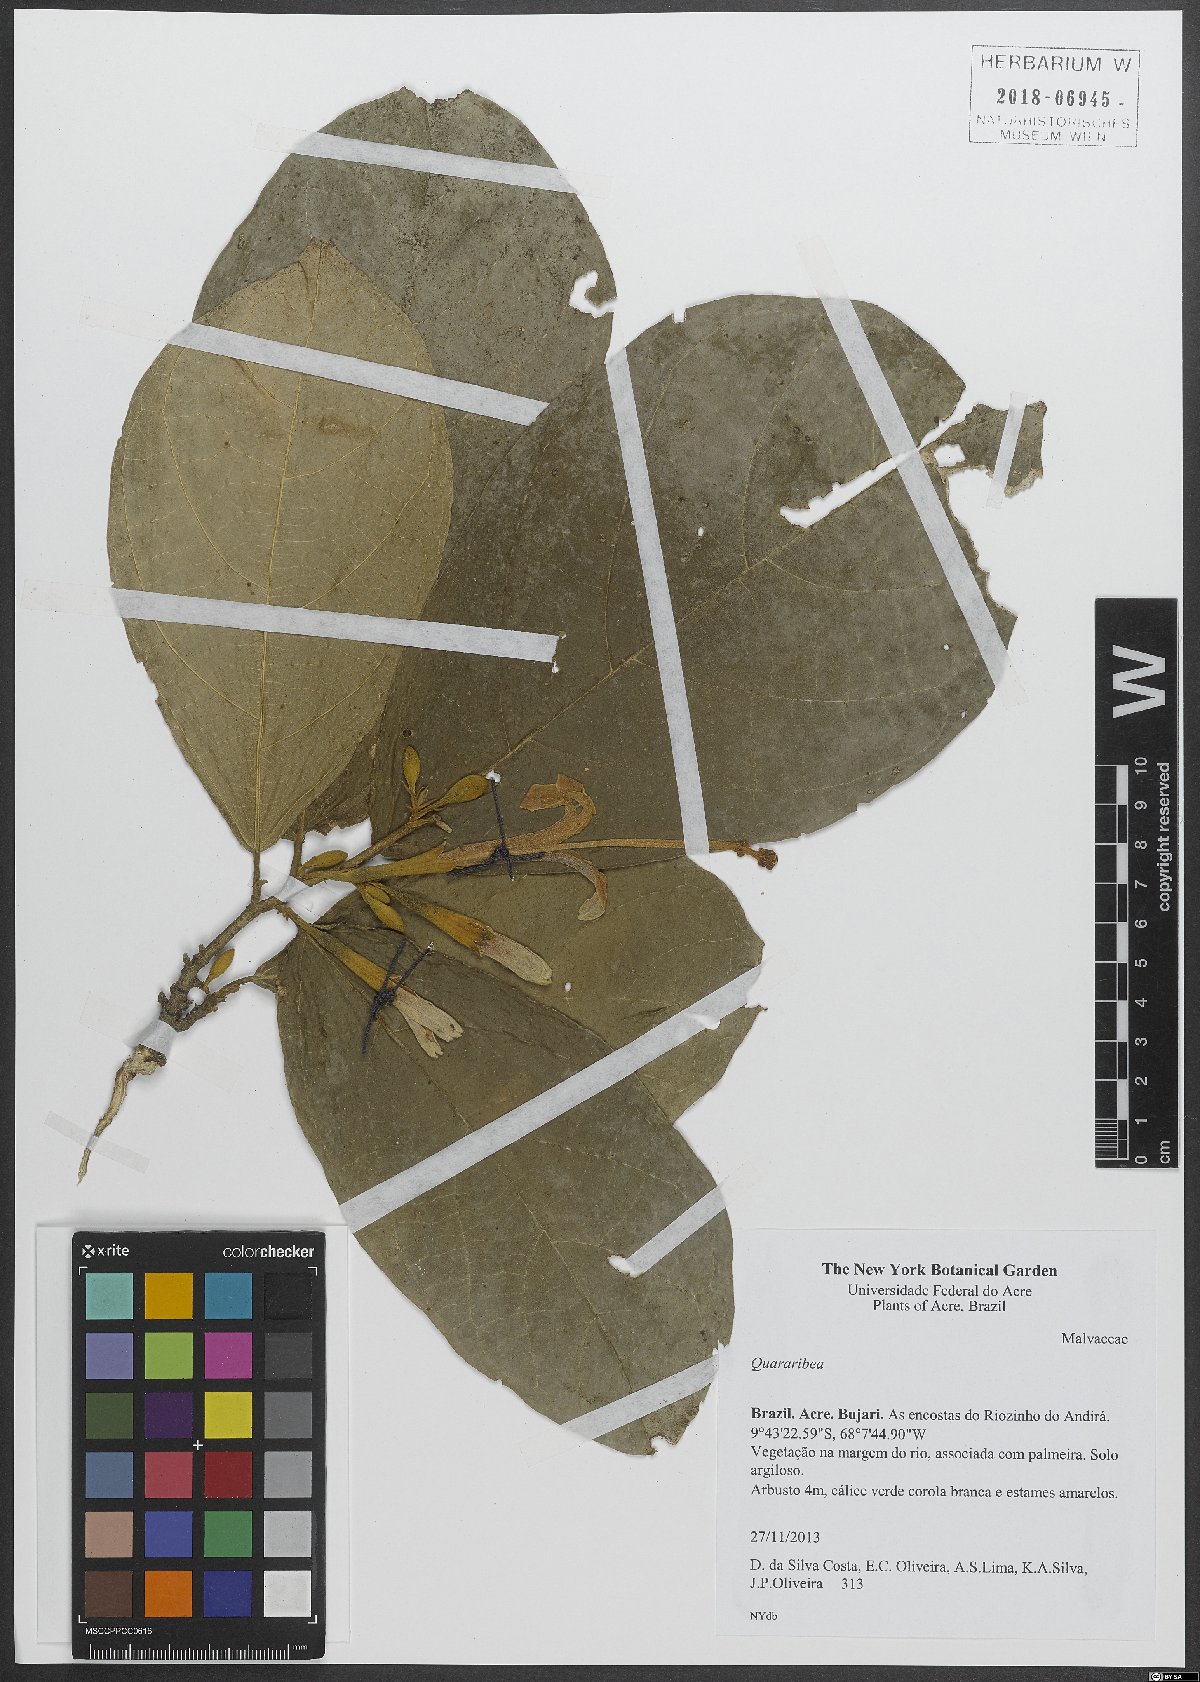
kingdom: Plantae
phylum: Tracheophyta
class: Magnoliopsida
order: Malvales
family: Malvaceae
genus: Quararibea
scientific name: Quararibea
